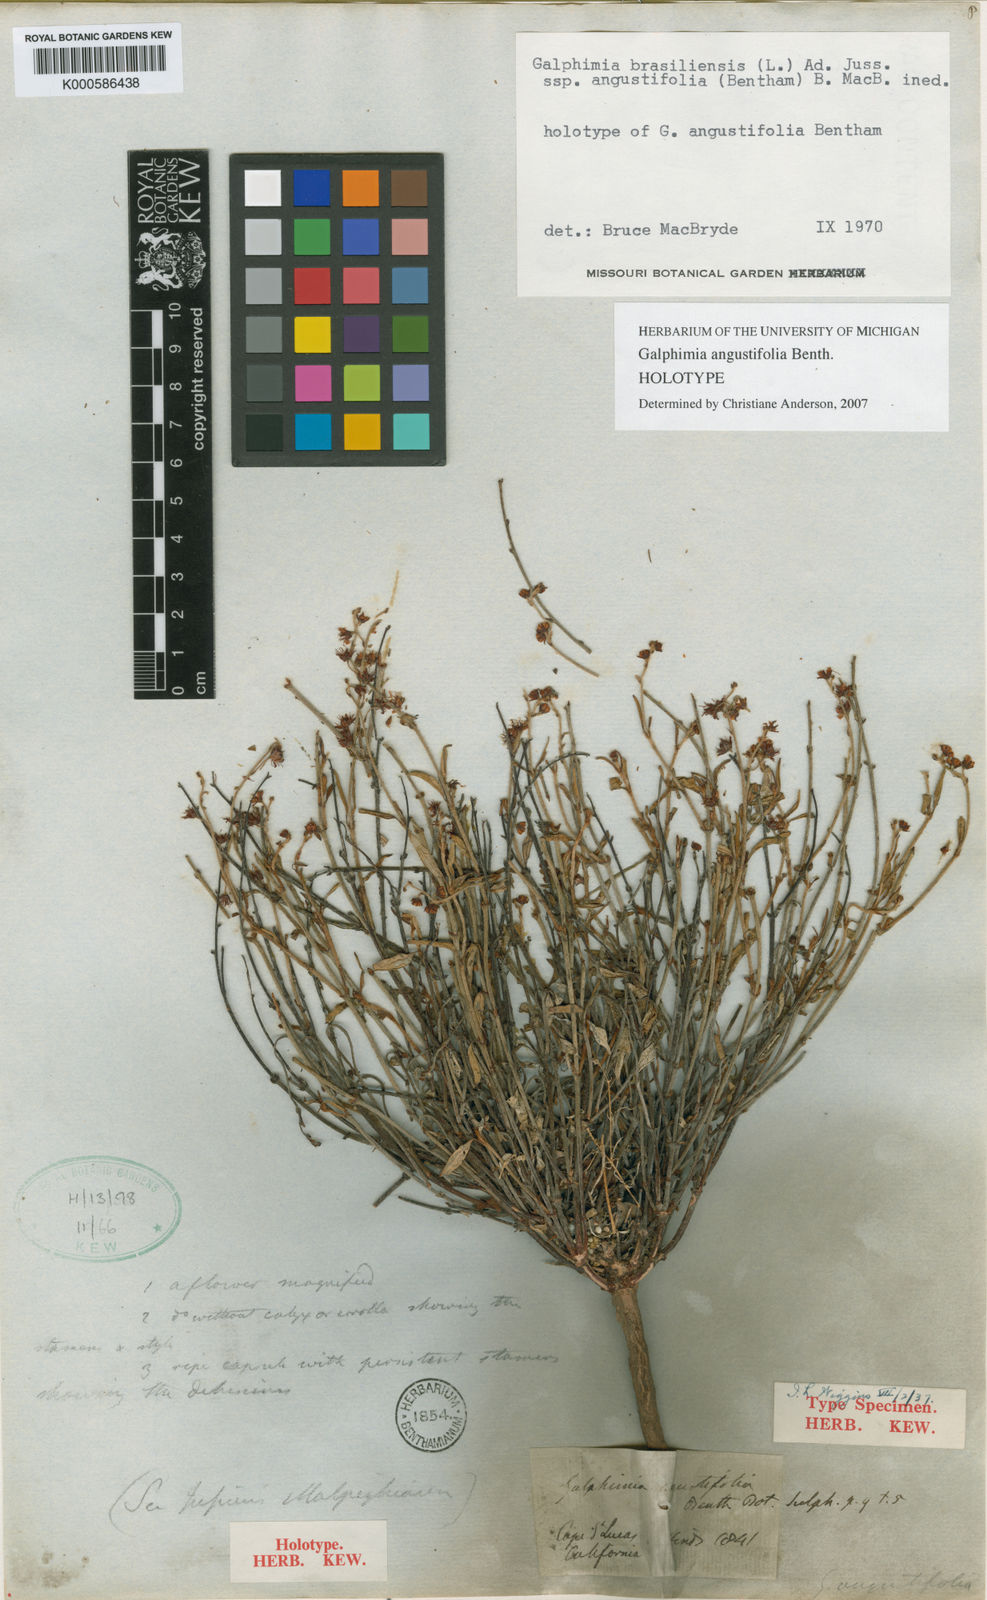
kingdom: Plantae
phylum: Tracheophyta
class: Magnoliopsida
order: Malpighiales
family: Malpighiaceae
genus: Galphimia
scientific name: Galphimia angustifolia
